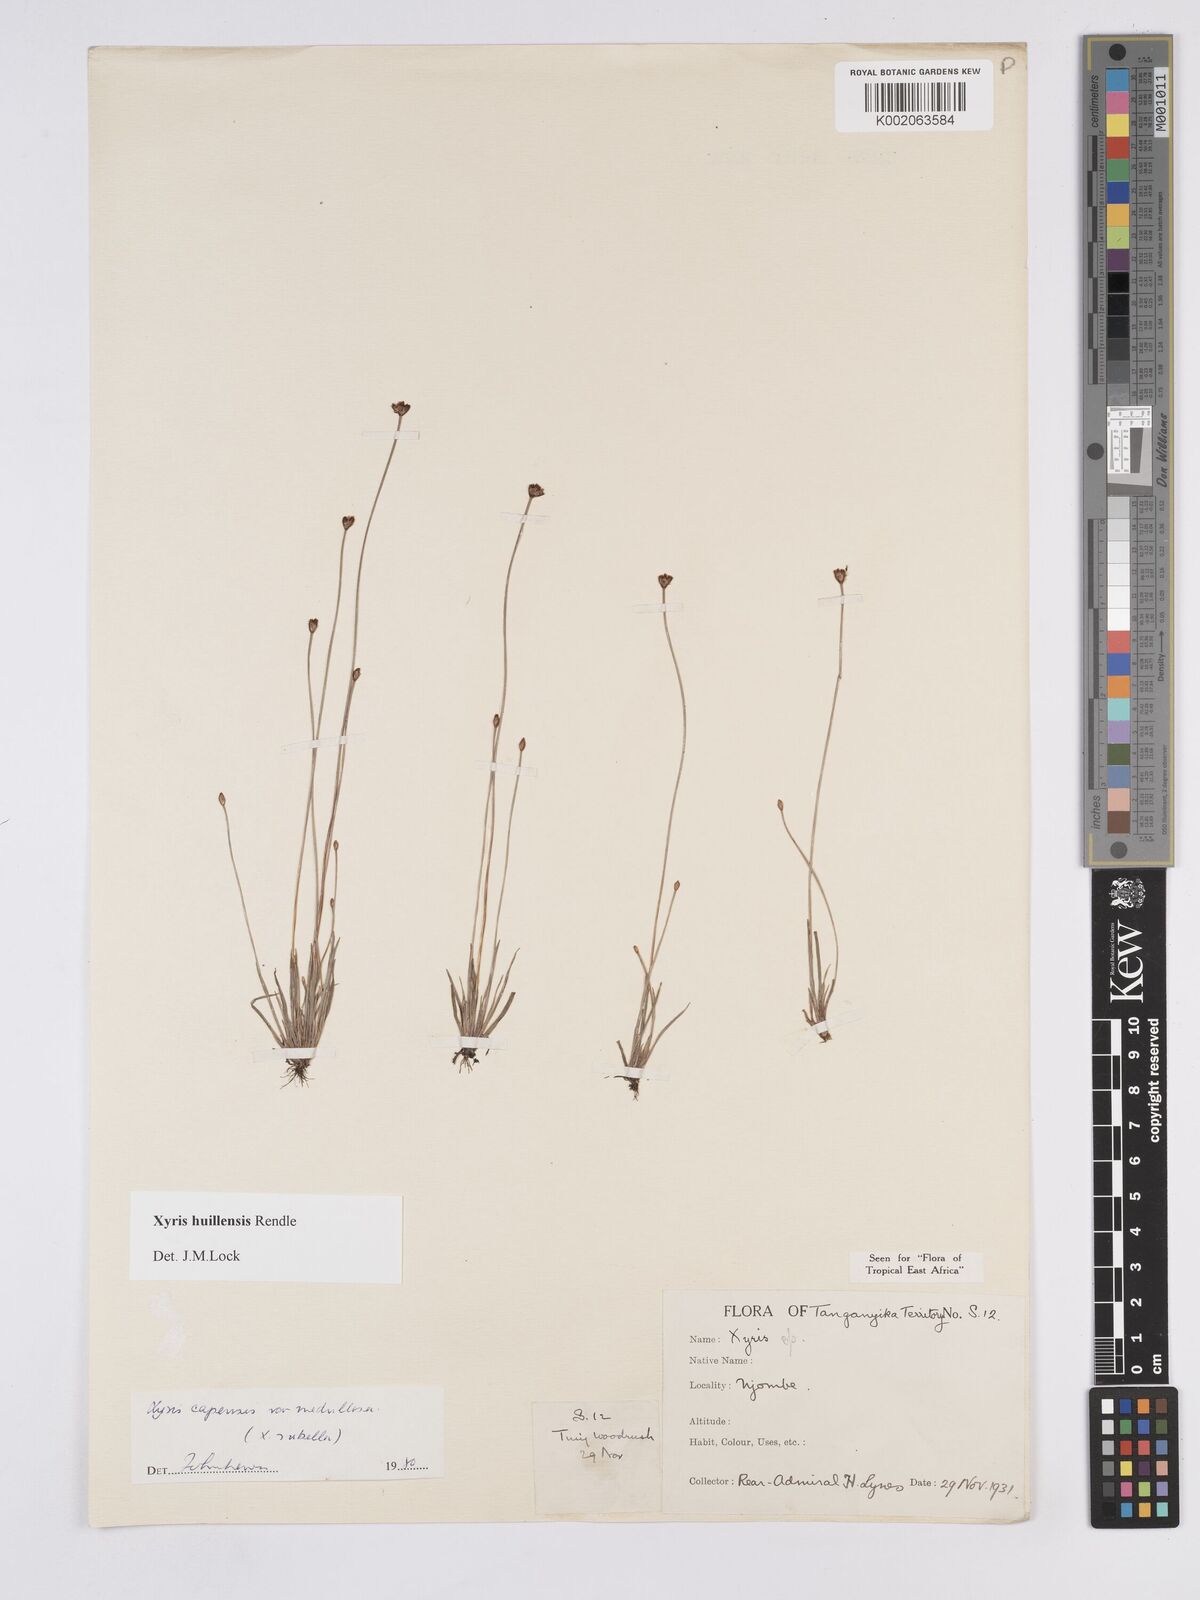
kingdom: Plantae
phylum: Tracheophyta
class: Liliopsida
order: Poales
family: Xyridaceae
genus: Xyris
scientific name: Xyris huillensis
